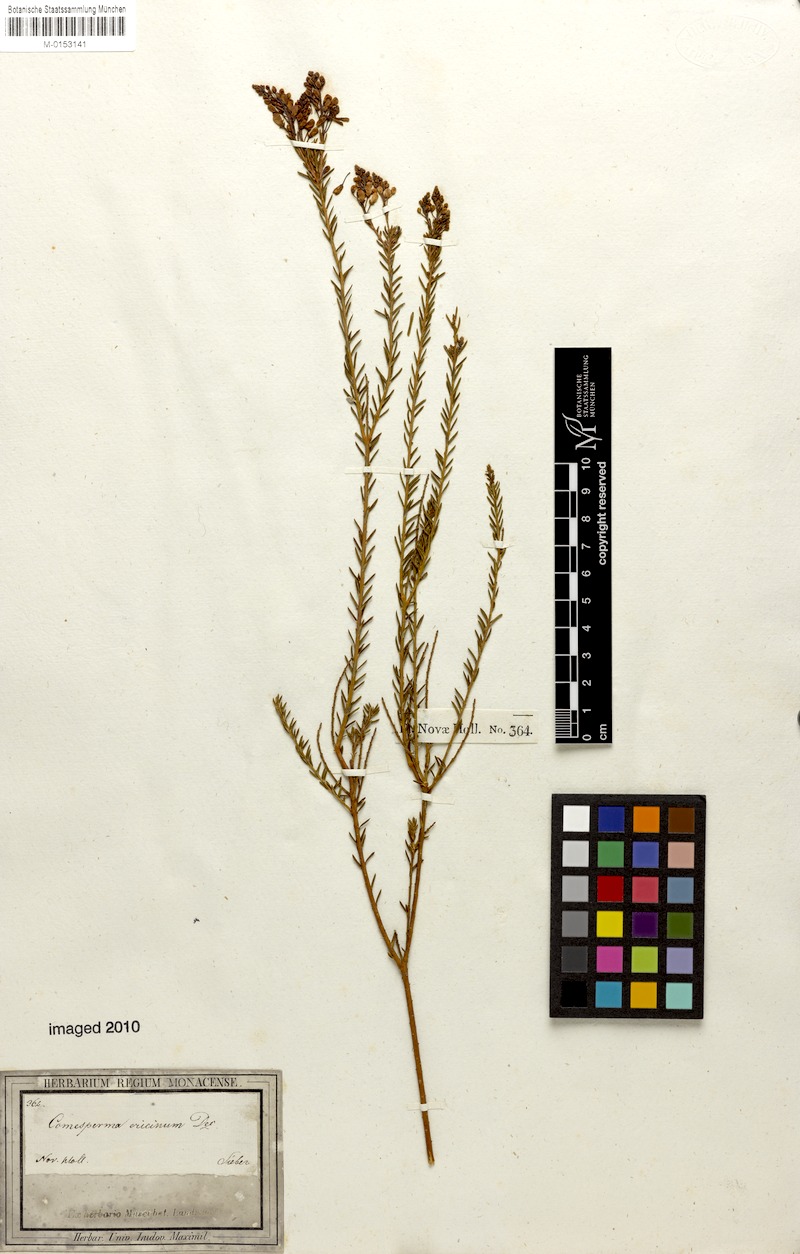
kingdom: Plantae
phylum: Tracheophyta
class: Magnoliopsida
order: Fabales
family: Polygalaceae
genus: Comesperma
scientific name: Comesperma ericinum
